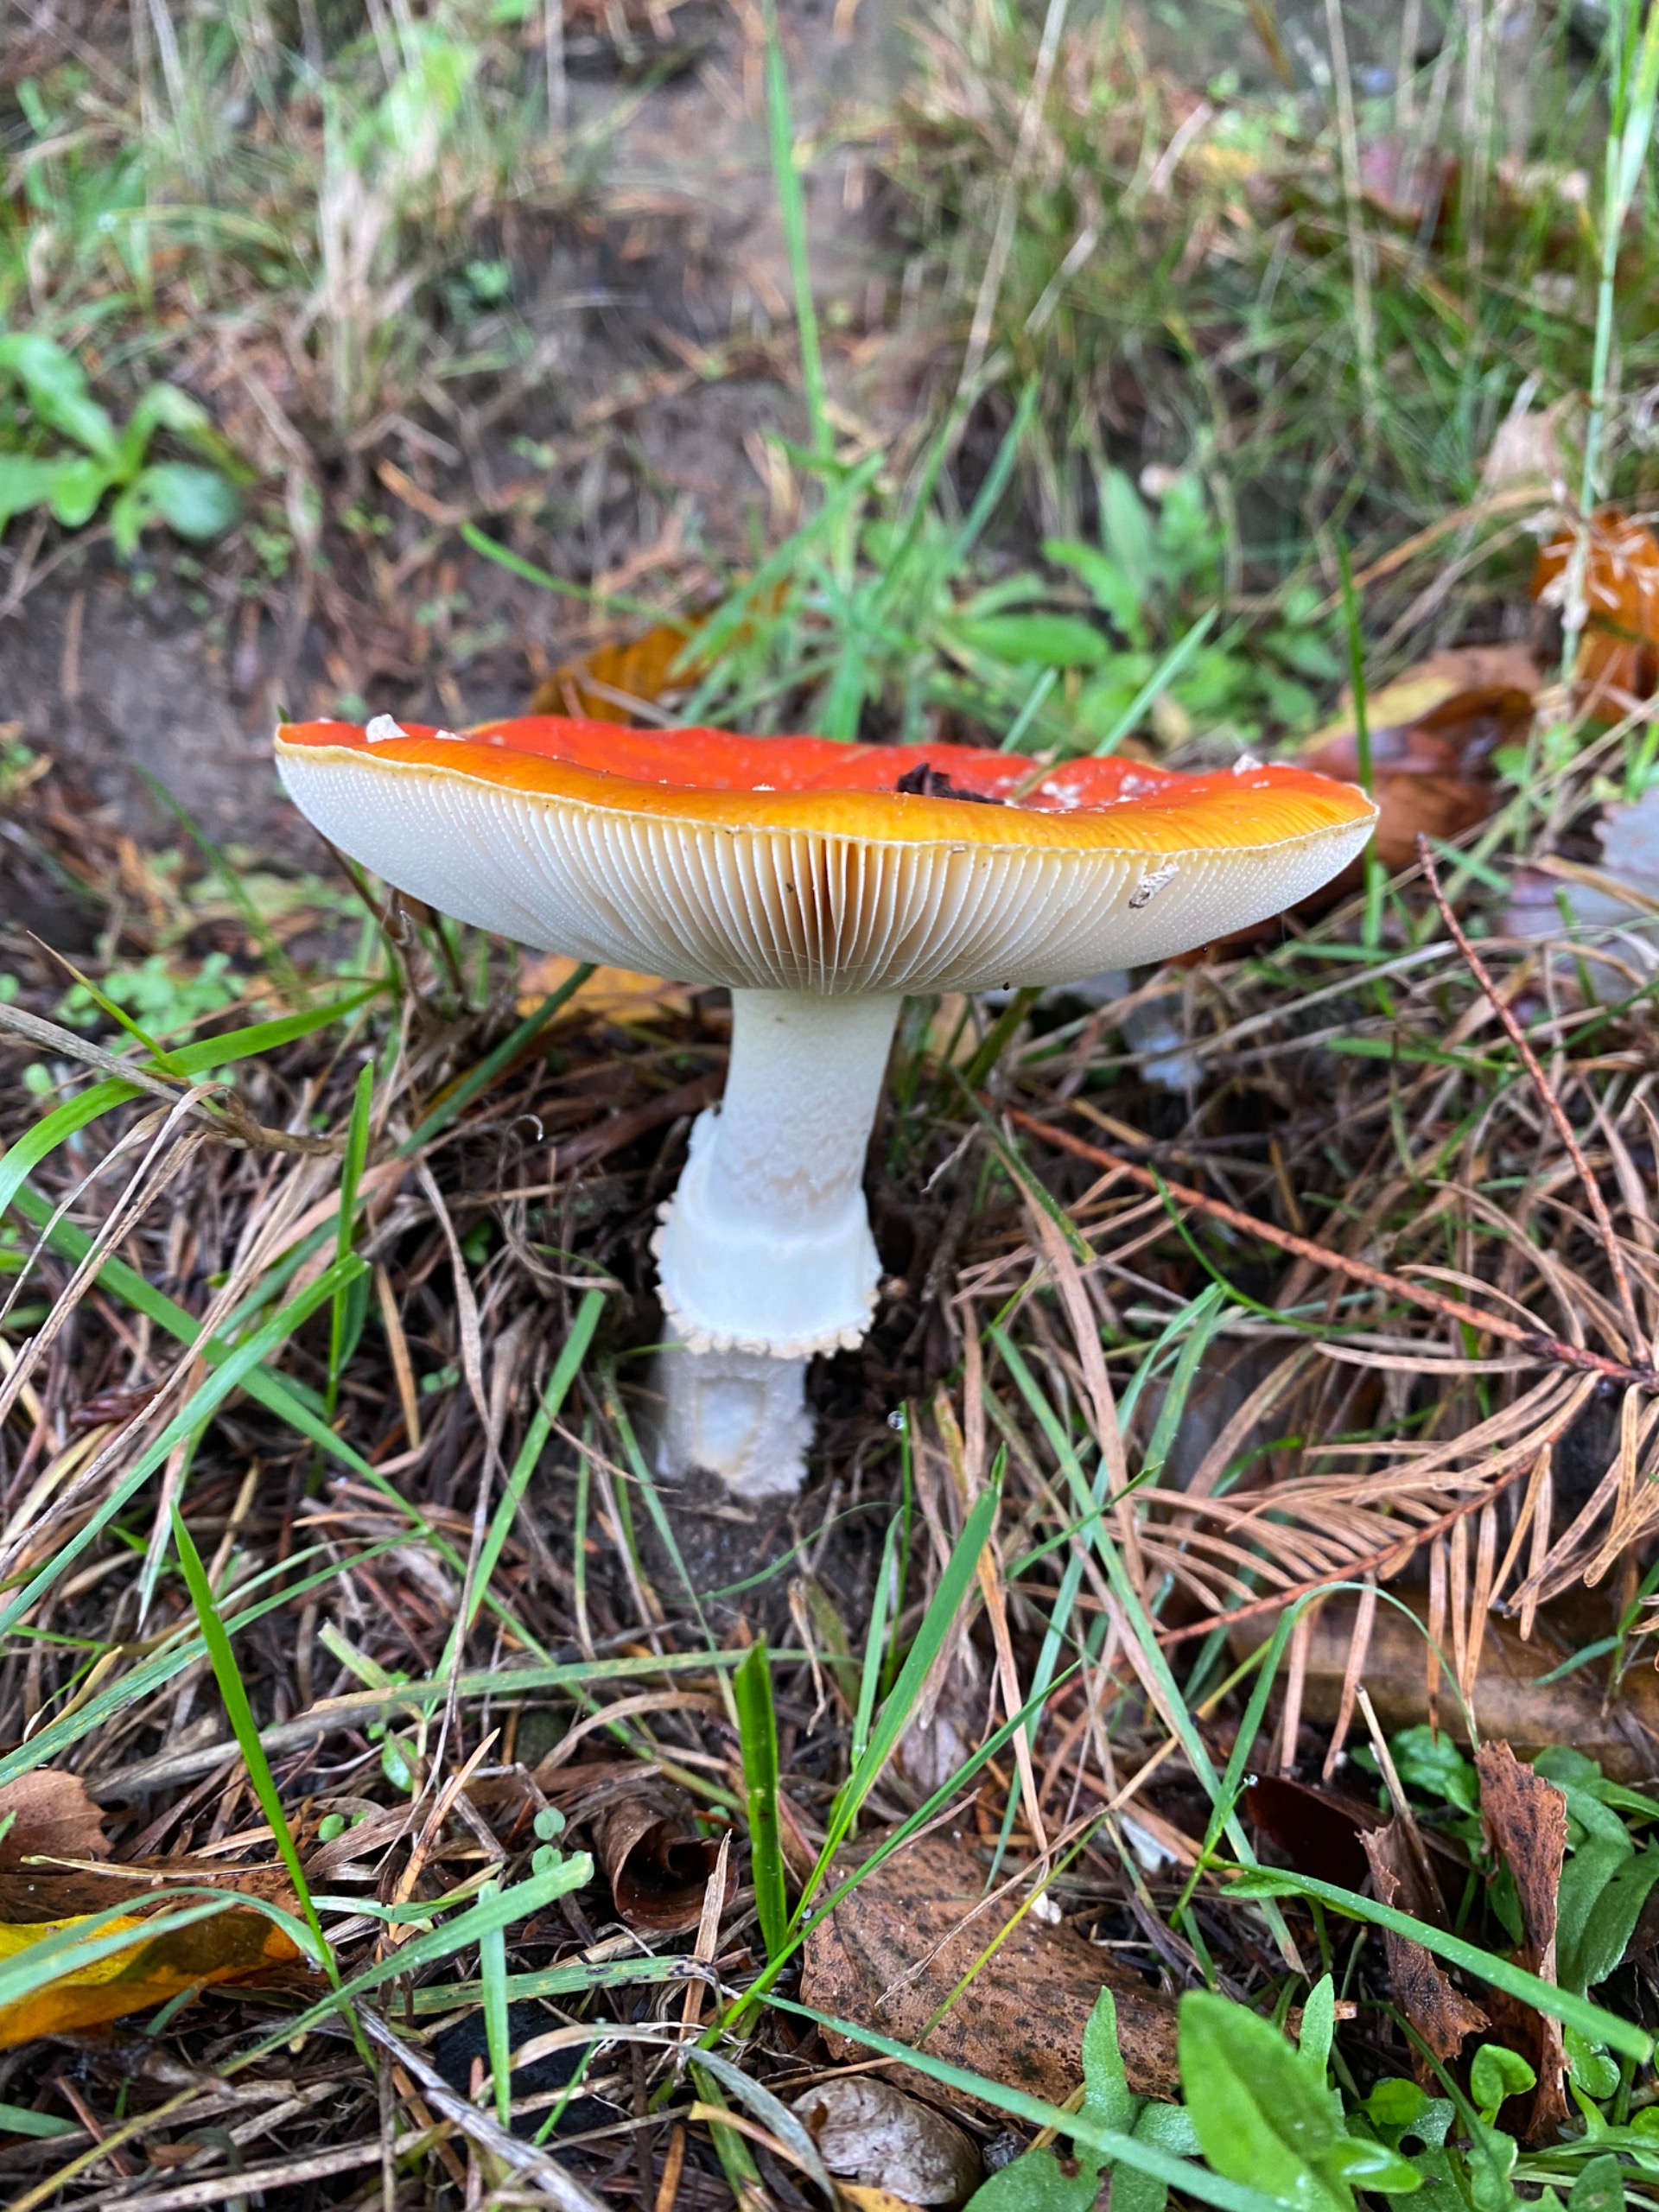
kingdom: Fungi
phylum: Basidiomycota
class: Agaricomycetes
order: Agaricales
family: Amanitaceae
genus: Amanita
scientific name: Amanita muscaria
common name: Rød fluesvamp
